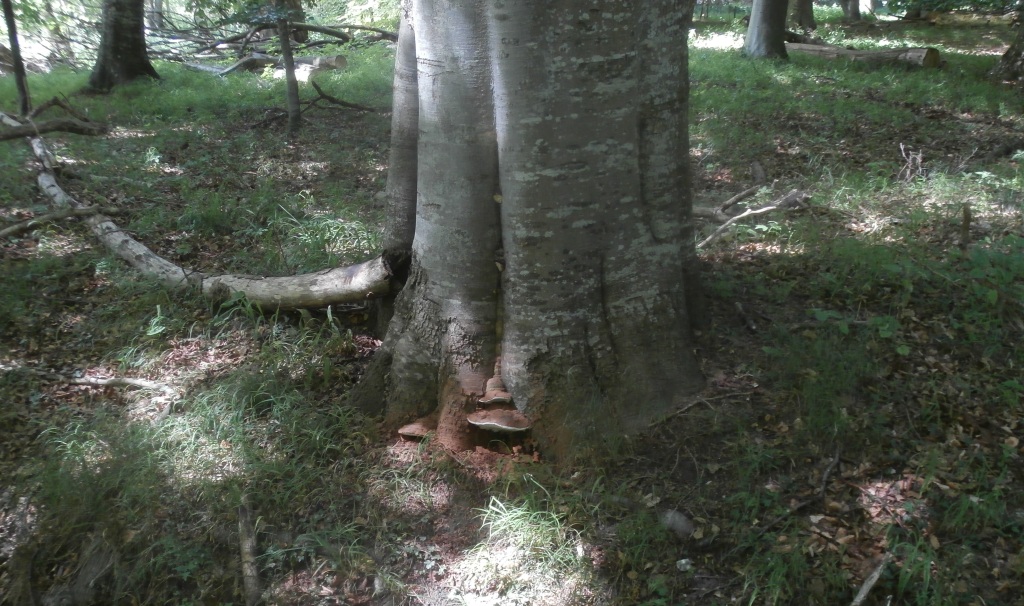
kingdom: Fungi
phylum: Basidiomycota
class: Agaricomycetes
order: Polyporales
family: Polyporaceae
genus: Ganoderma
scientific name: Ganoderma pfeifferi
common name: kobberrød lakporesvamp
